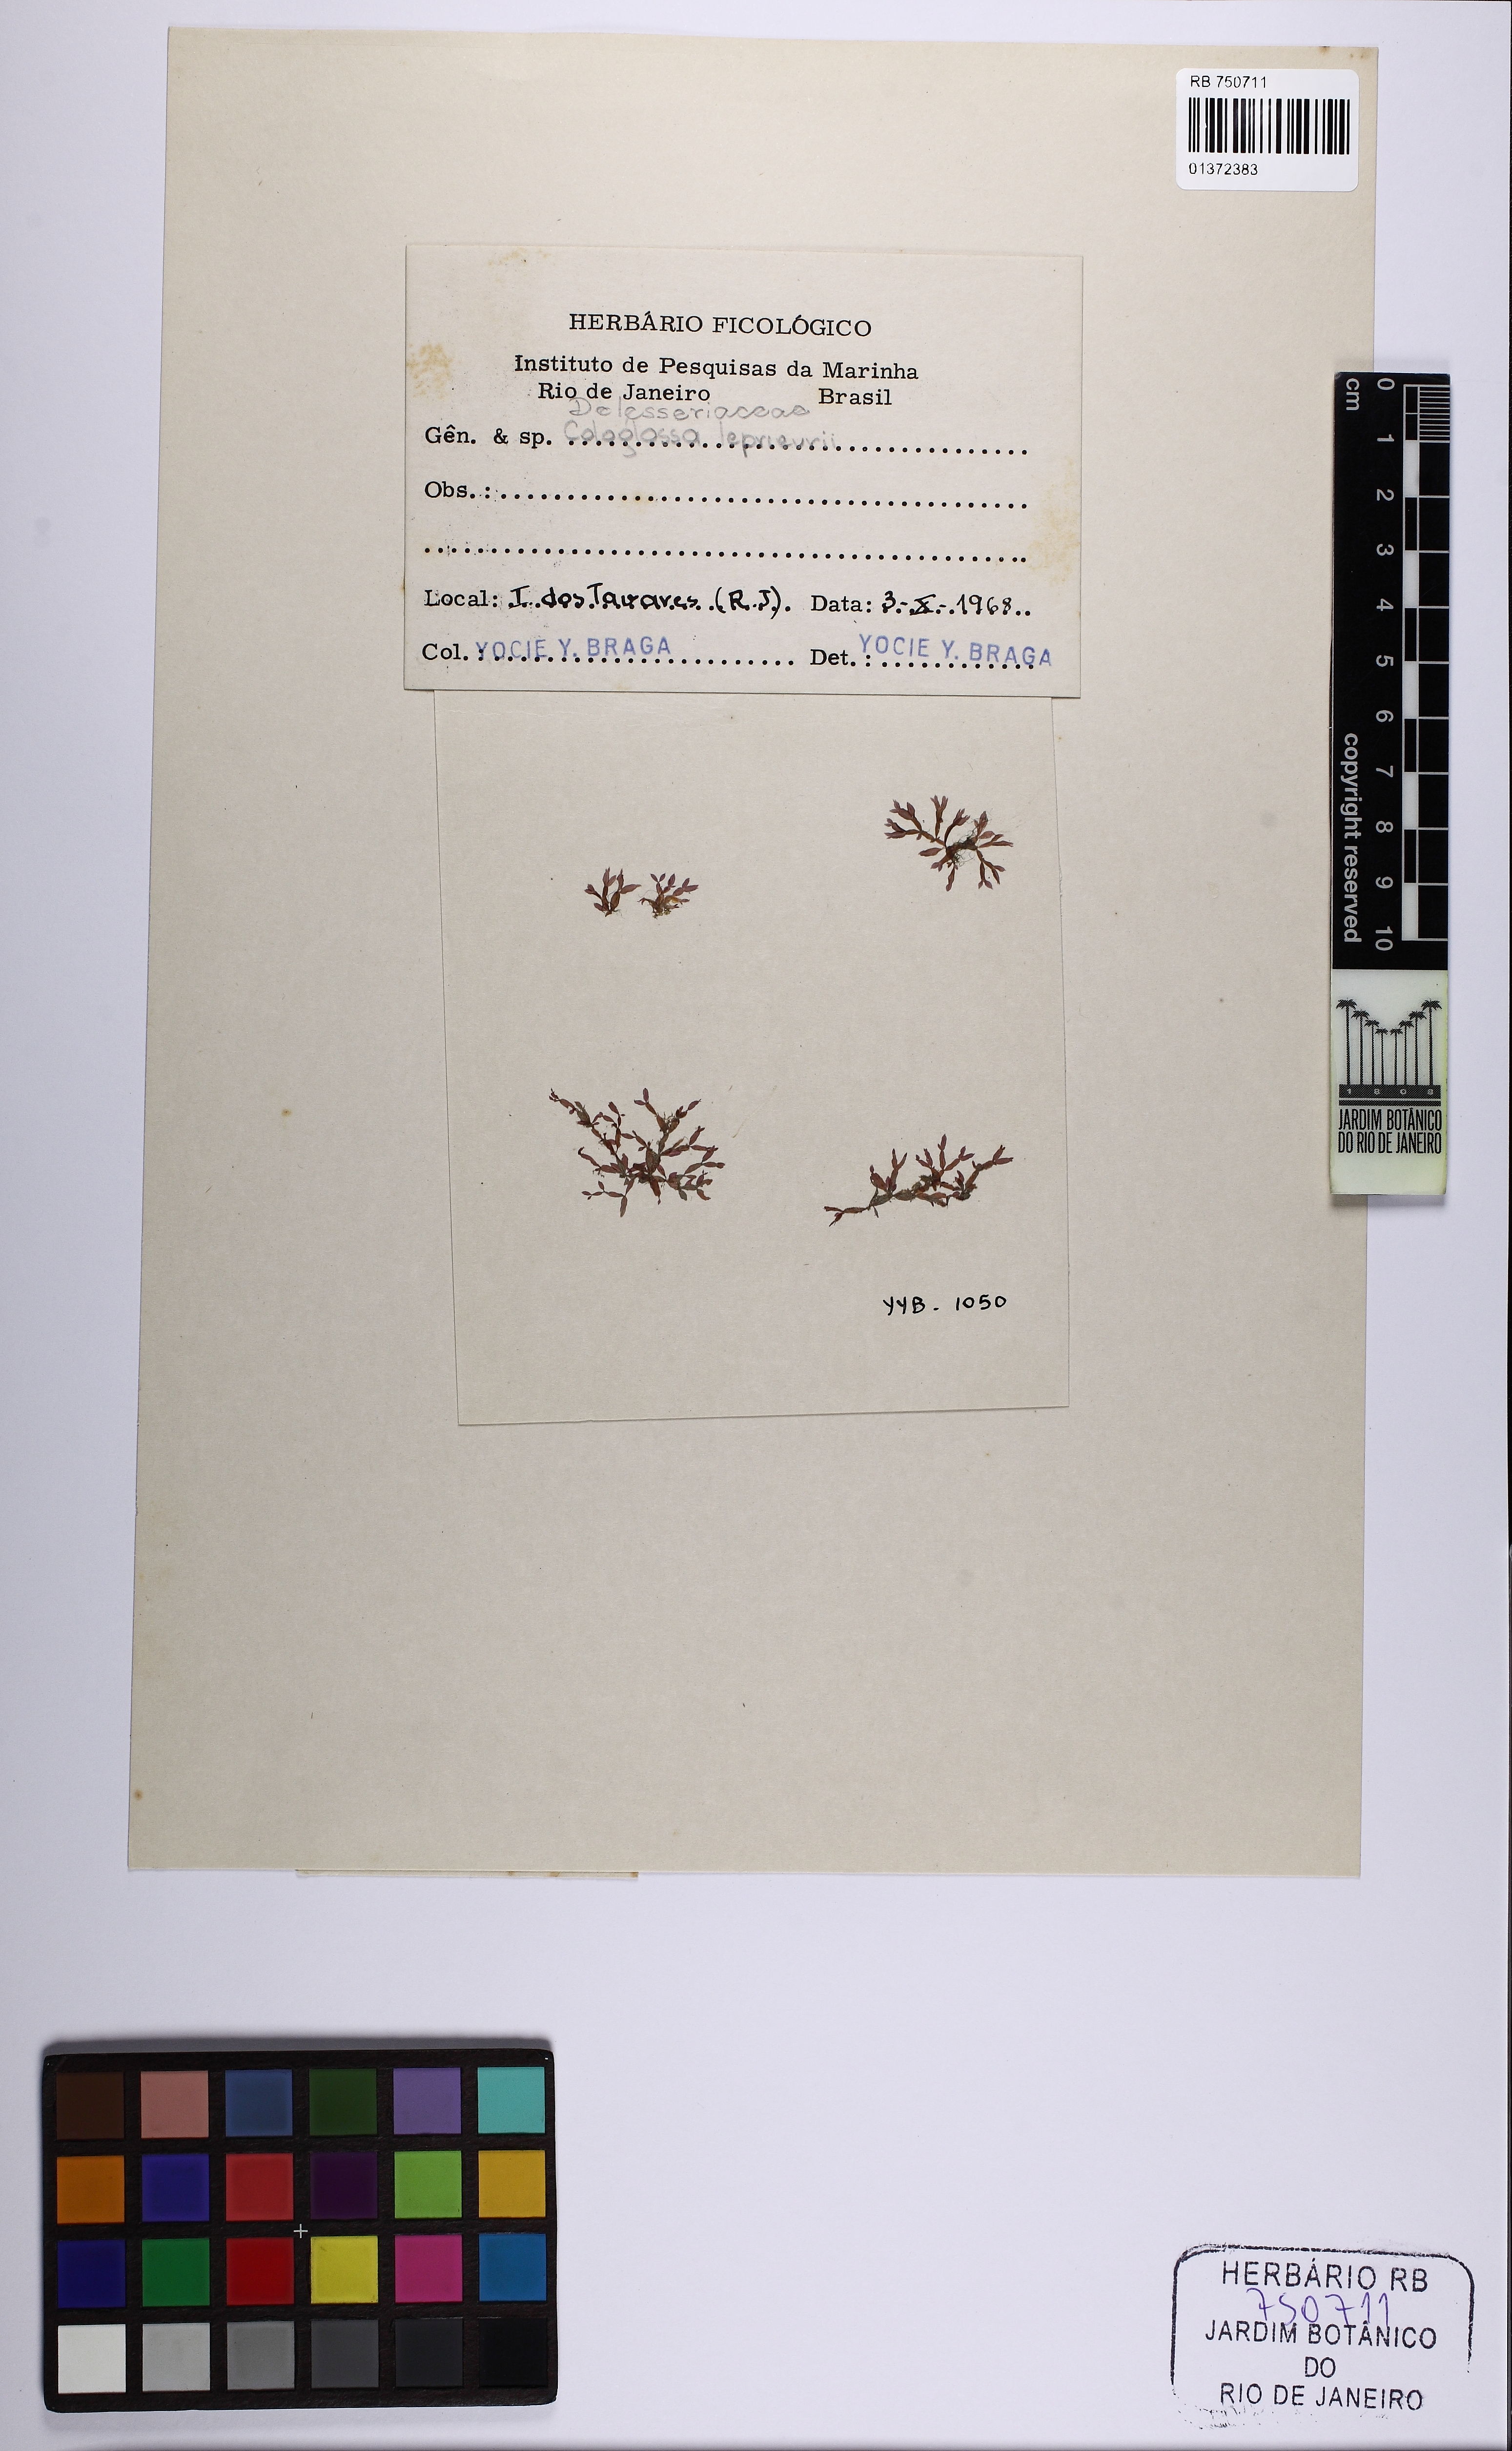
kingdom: Plantae
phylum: Rhodophyta
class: Florideophyceae
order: Ceramiales
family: Delesseriaceae
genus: Caloglossa
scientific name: Caloglossa leprieurii
